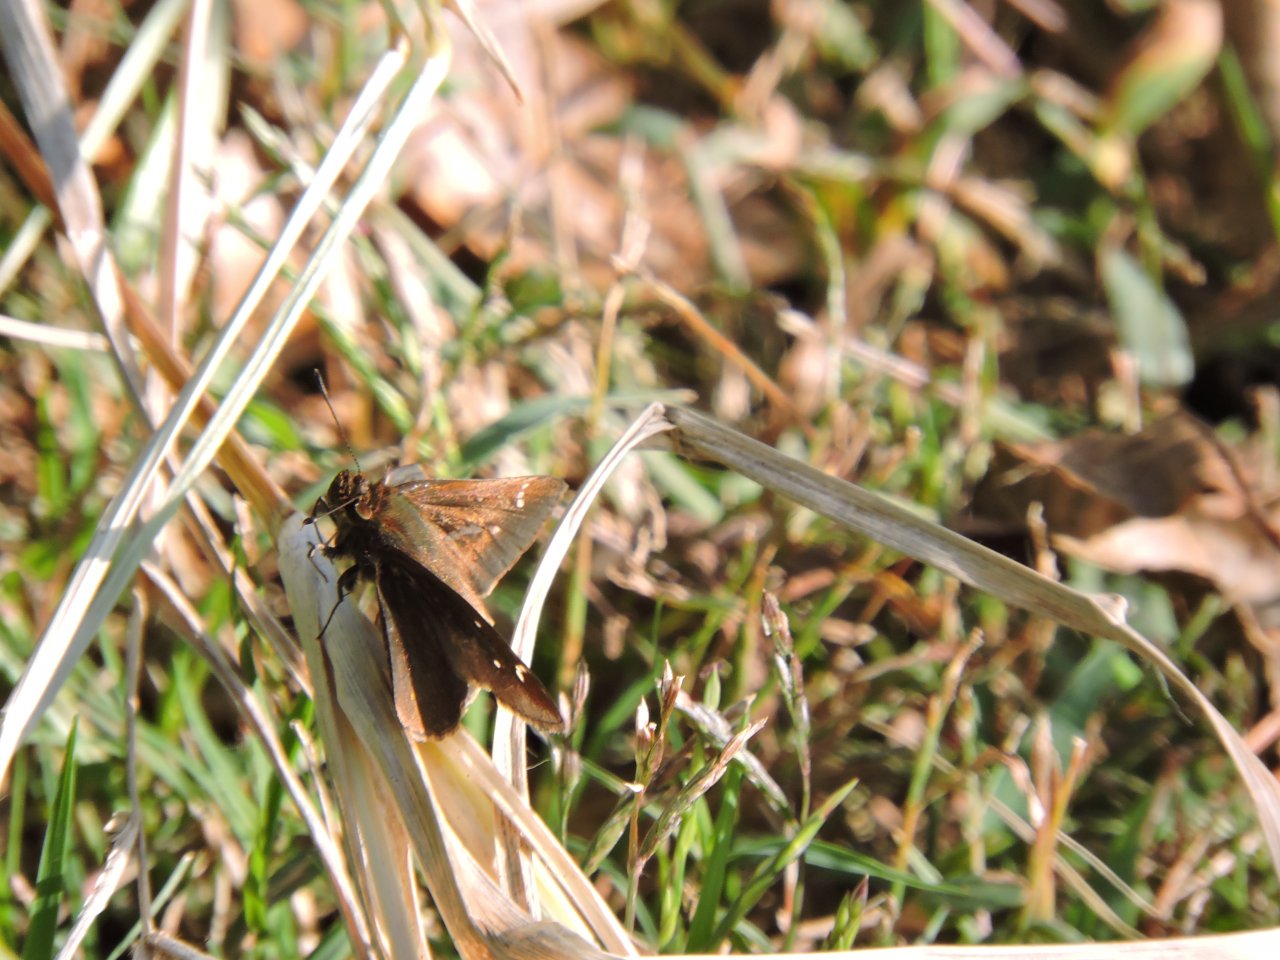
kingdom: Animalia
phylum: Arthropoda
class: Insecta
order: Lepidoptera
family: Hesperiidae
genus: Lerema
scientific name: Lerema accius
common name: Clouded Skipper
